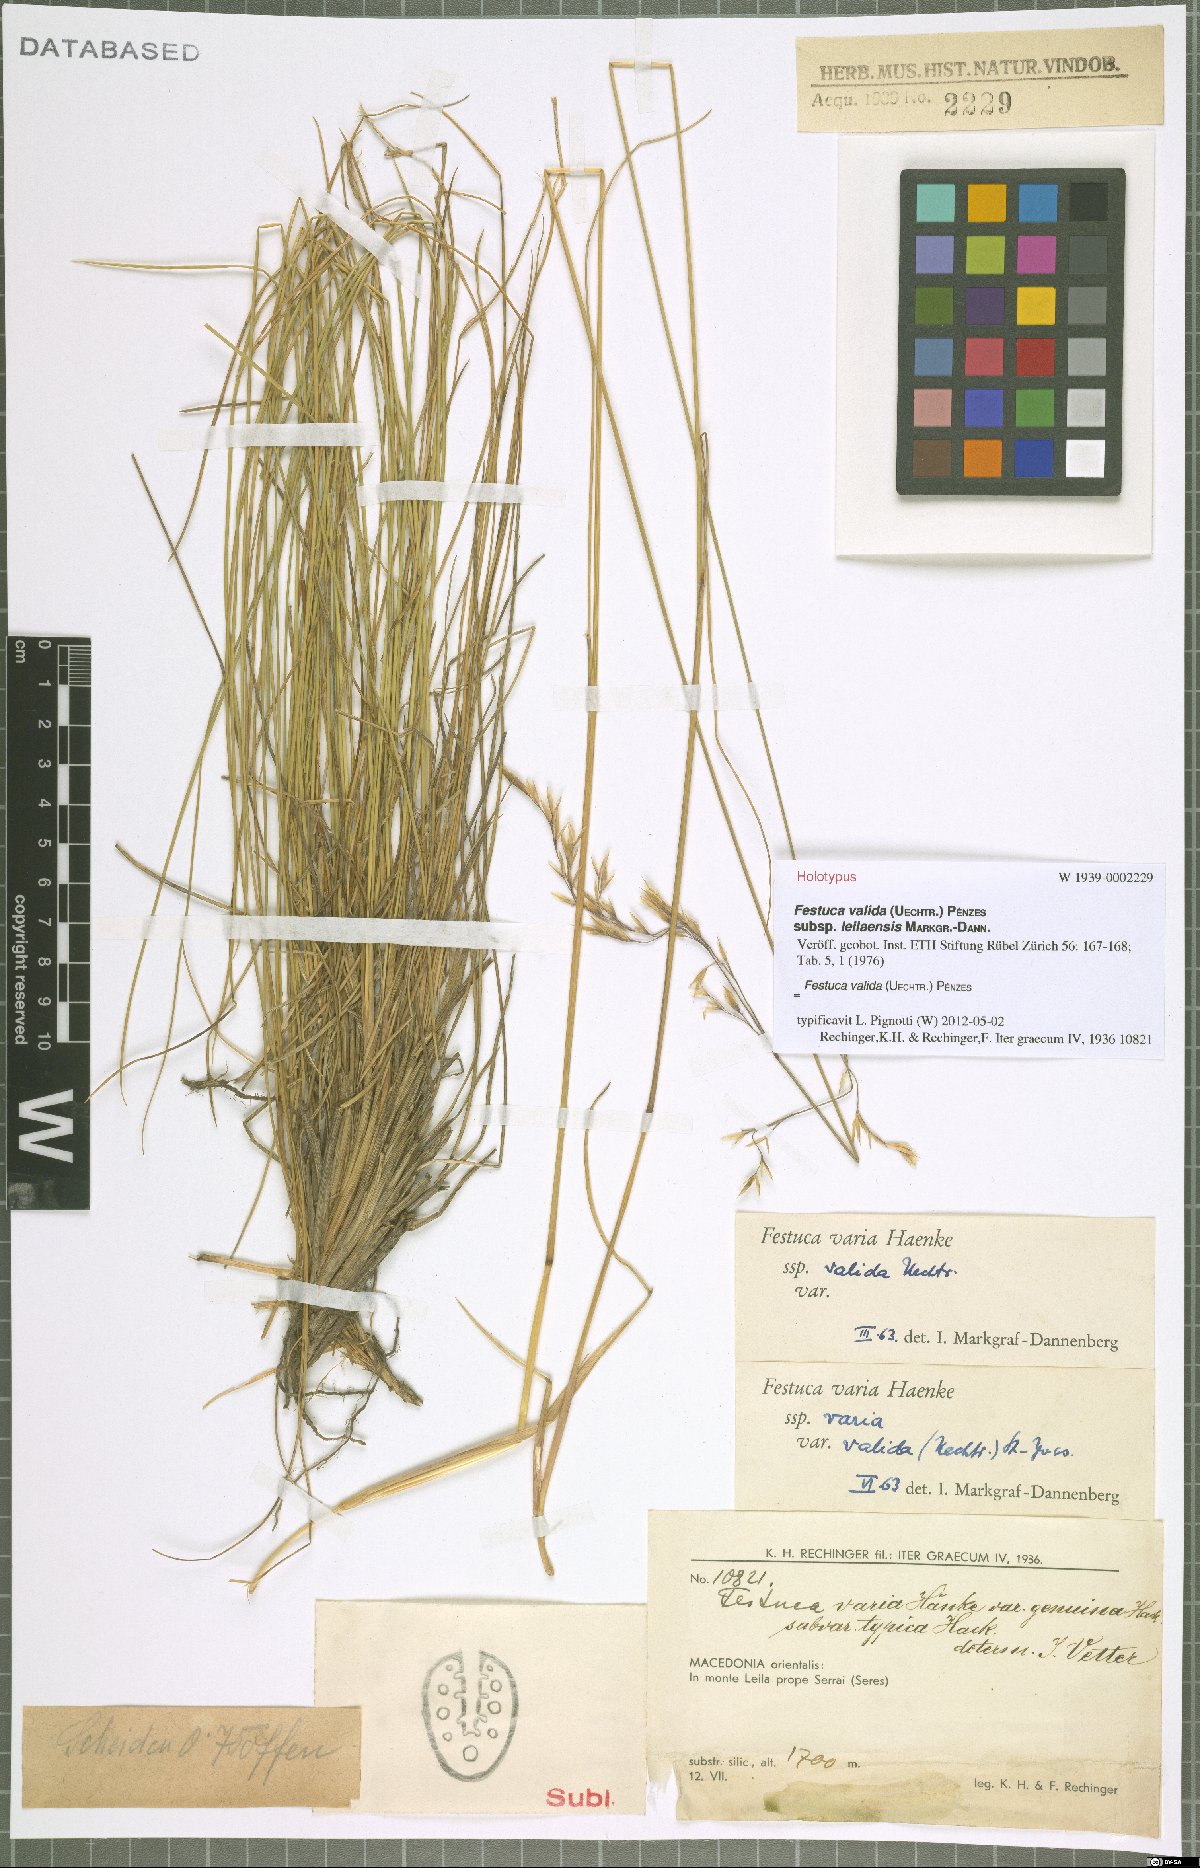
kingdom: Plantae
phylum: Tracheophyta
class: Liliopsida
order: Poales
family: Poaceae
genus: Festuca
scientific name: Festuca valida
